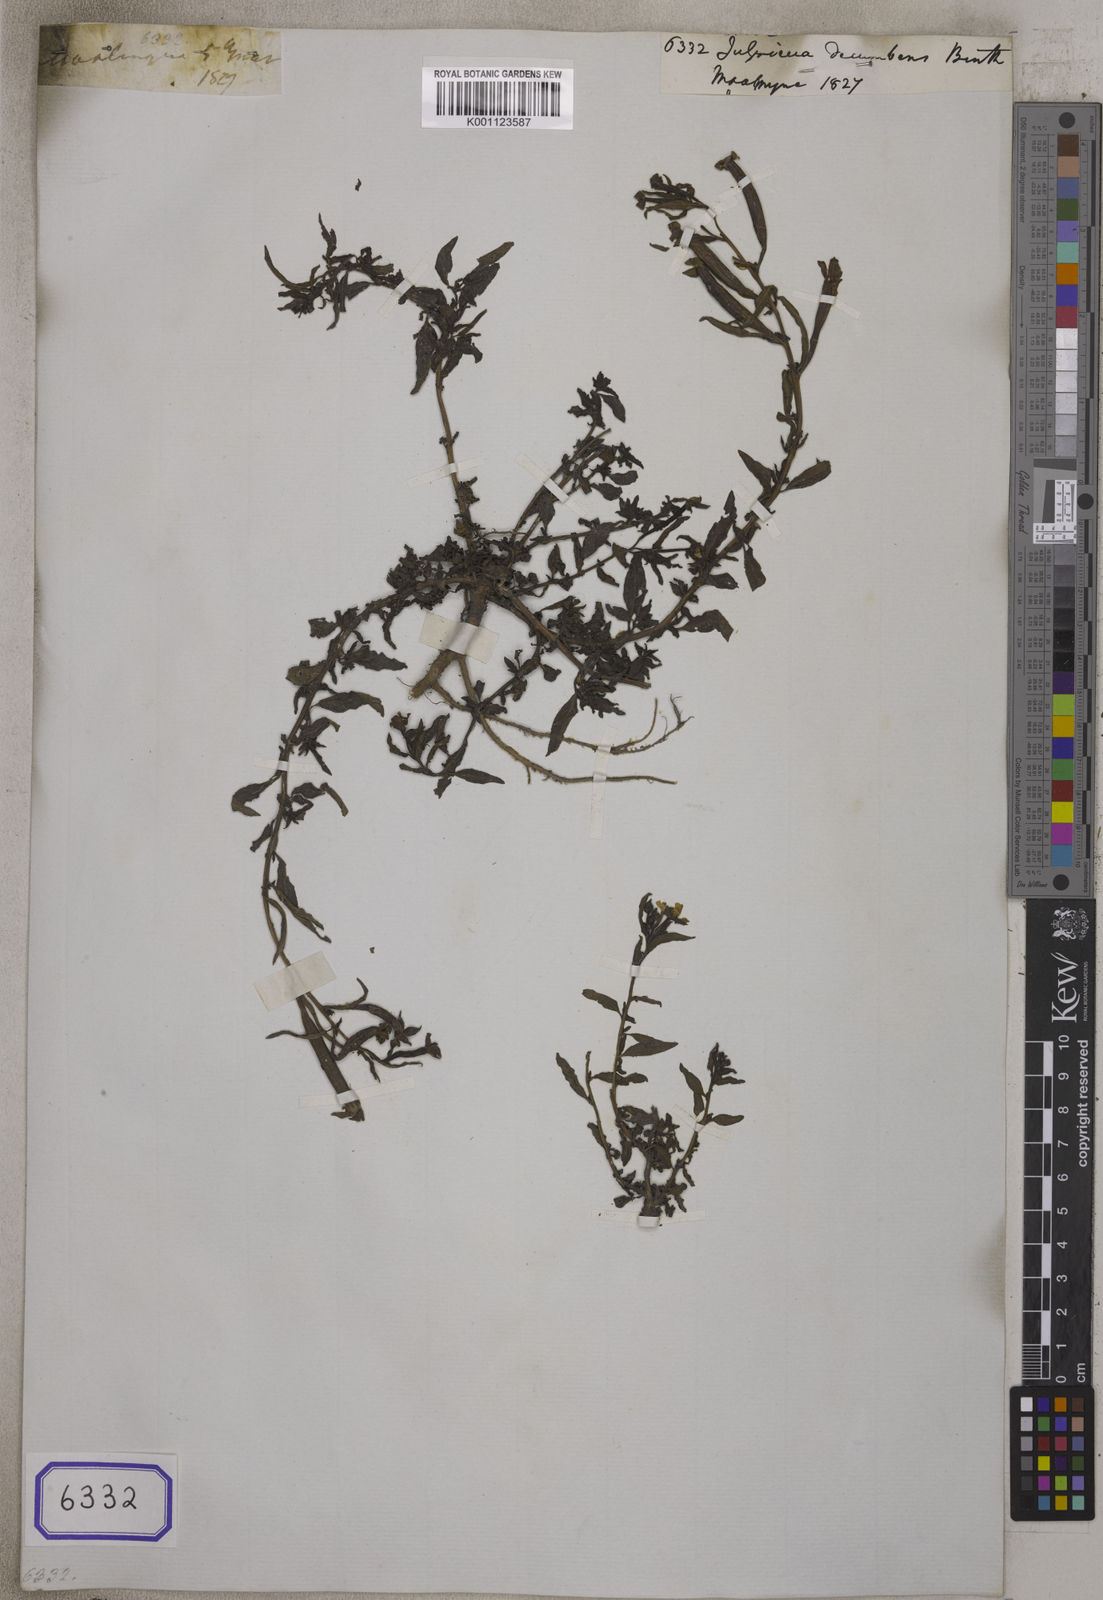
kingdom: Plantae
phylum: Tracheophyta
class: Magnoliopsida
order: Myrtales
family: Onagraceae
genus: Ludwigia
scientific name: Ludwigia octovalvis
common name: Water-primrose
